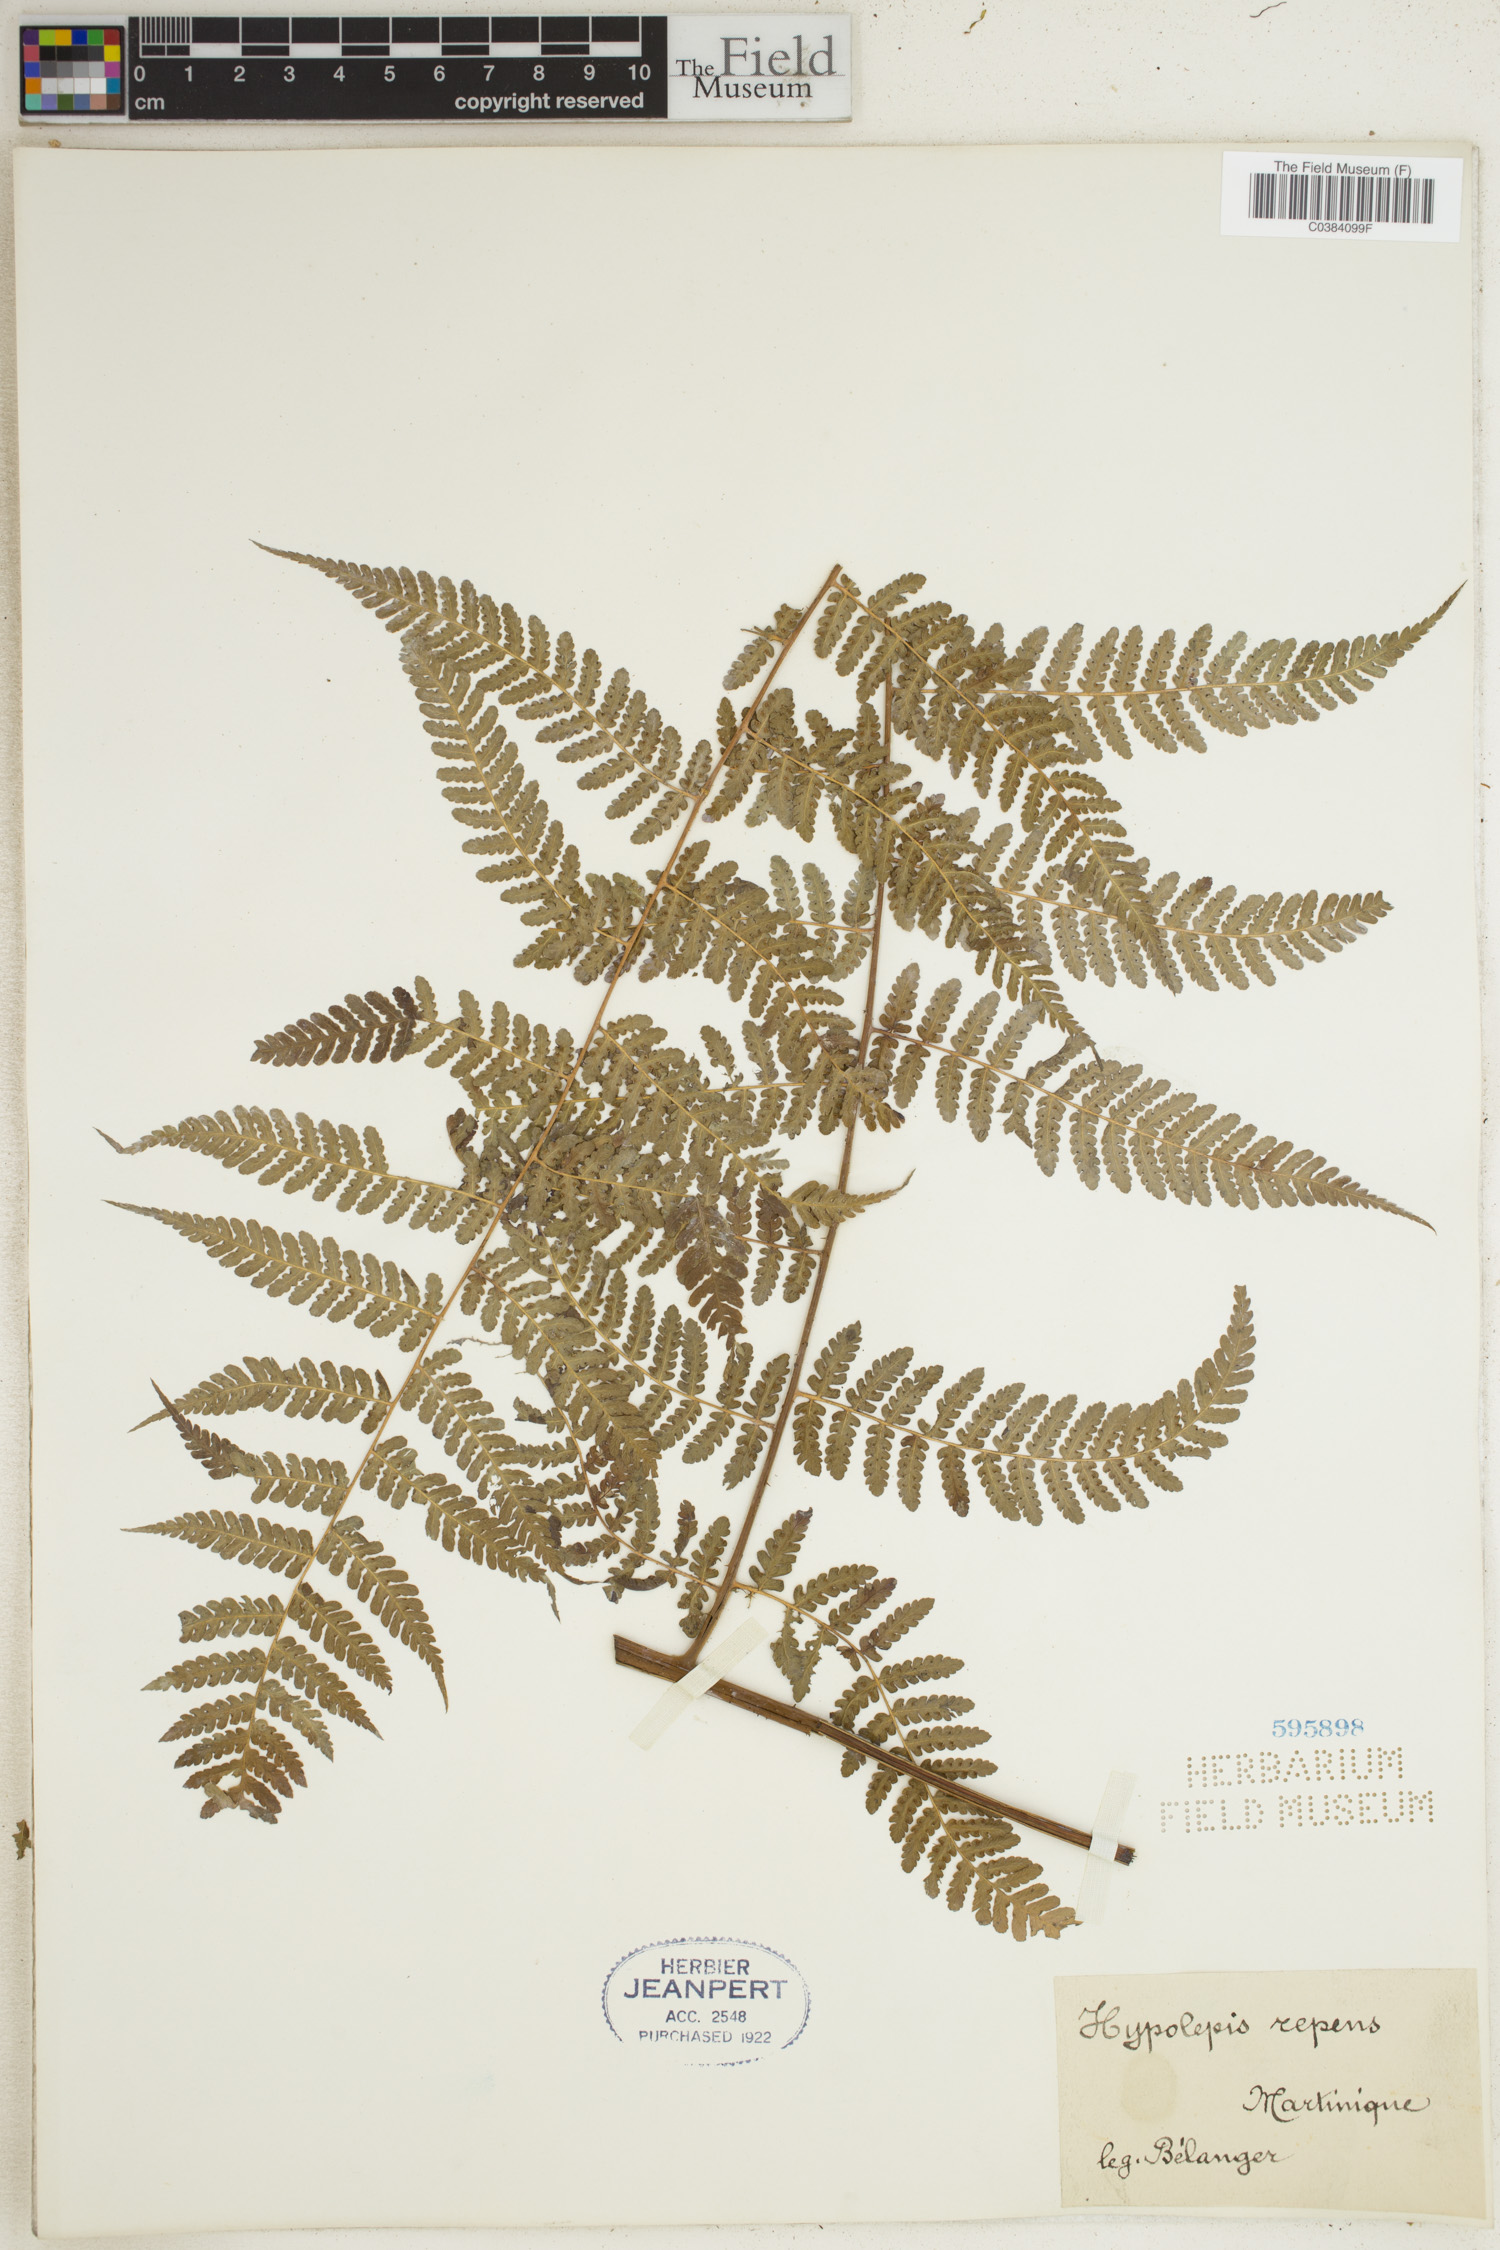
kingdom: Plantae
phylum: Tracheophyta
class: Polypodiopsida
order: Polypodiales
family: Dennstaedtiaceae
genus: Hypolepis
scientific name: Hypolepis repens
